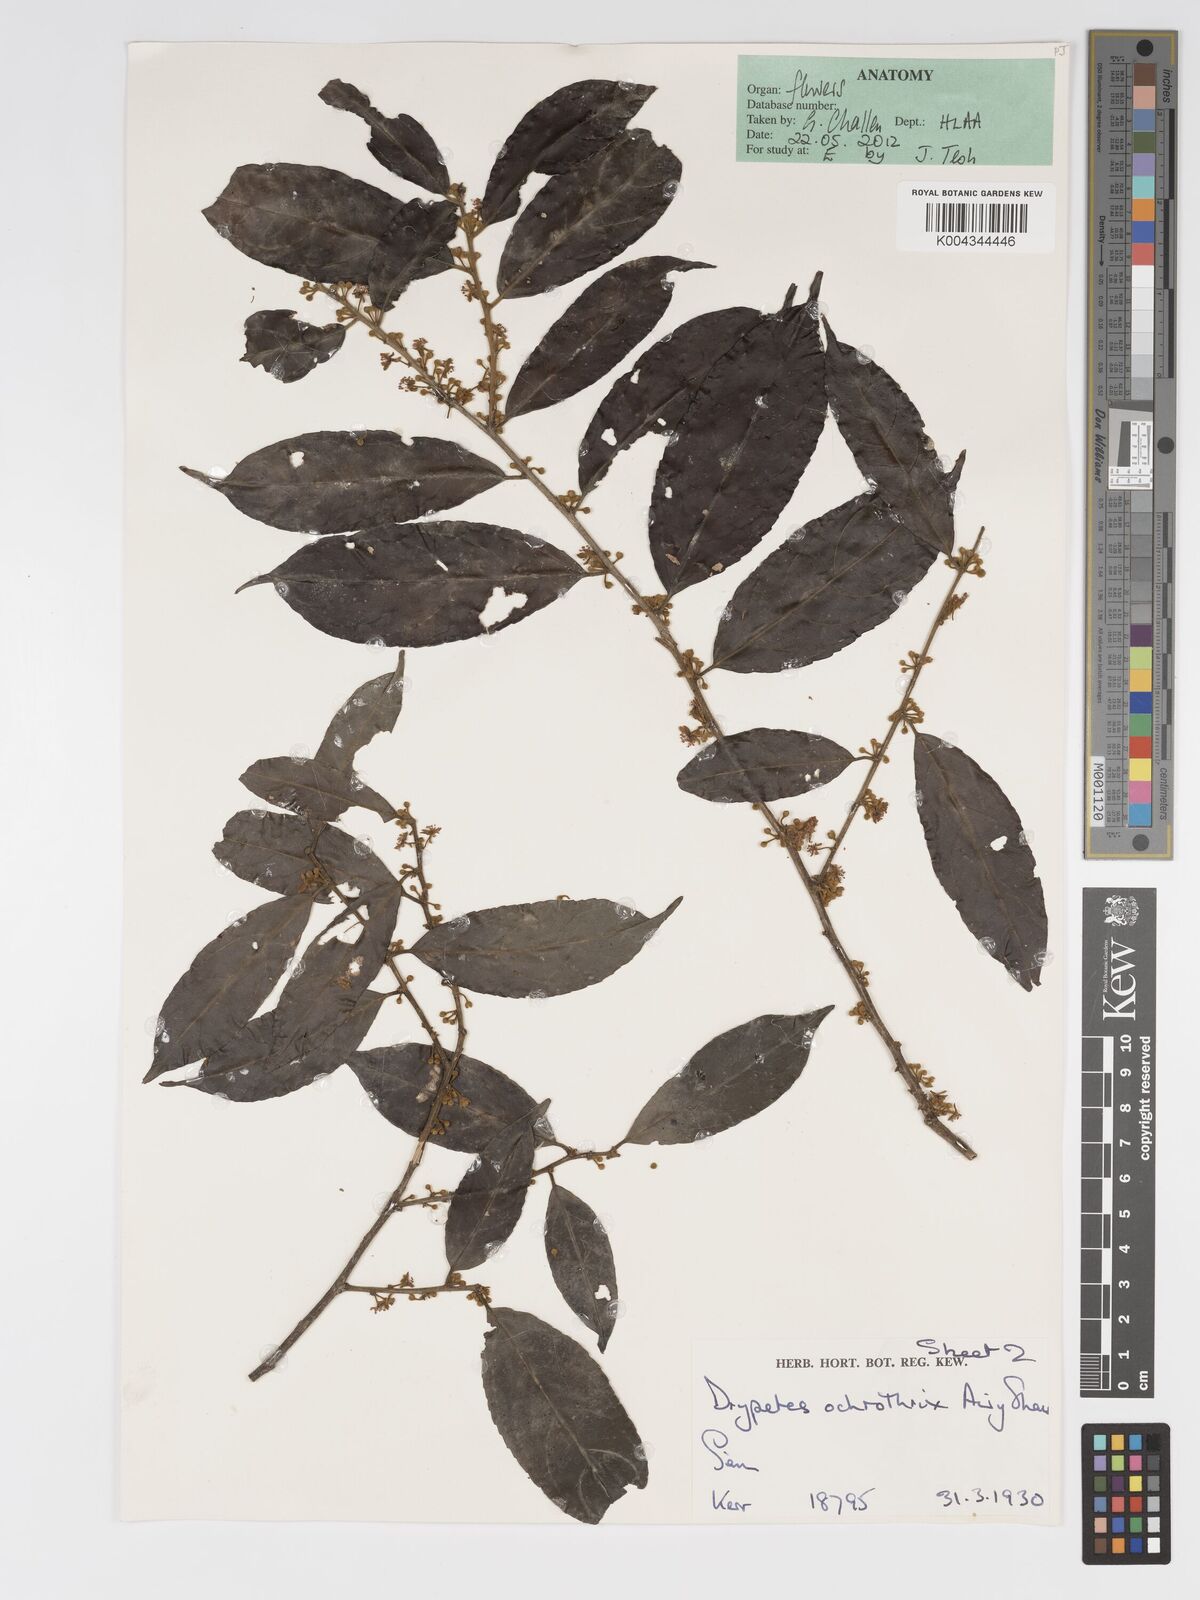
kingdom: Plantae
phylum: Tracheophyta
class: Magnoliopsida
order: Malpighiales
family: Putranjivaceae
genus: Drypetes
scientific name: Drypetes ochrothrix
